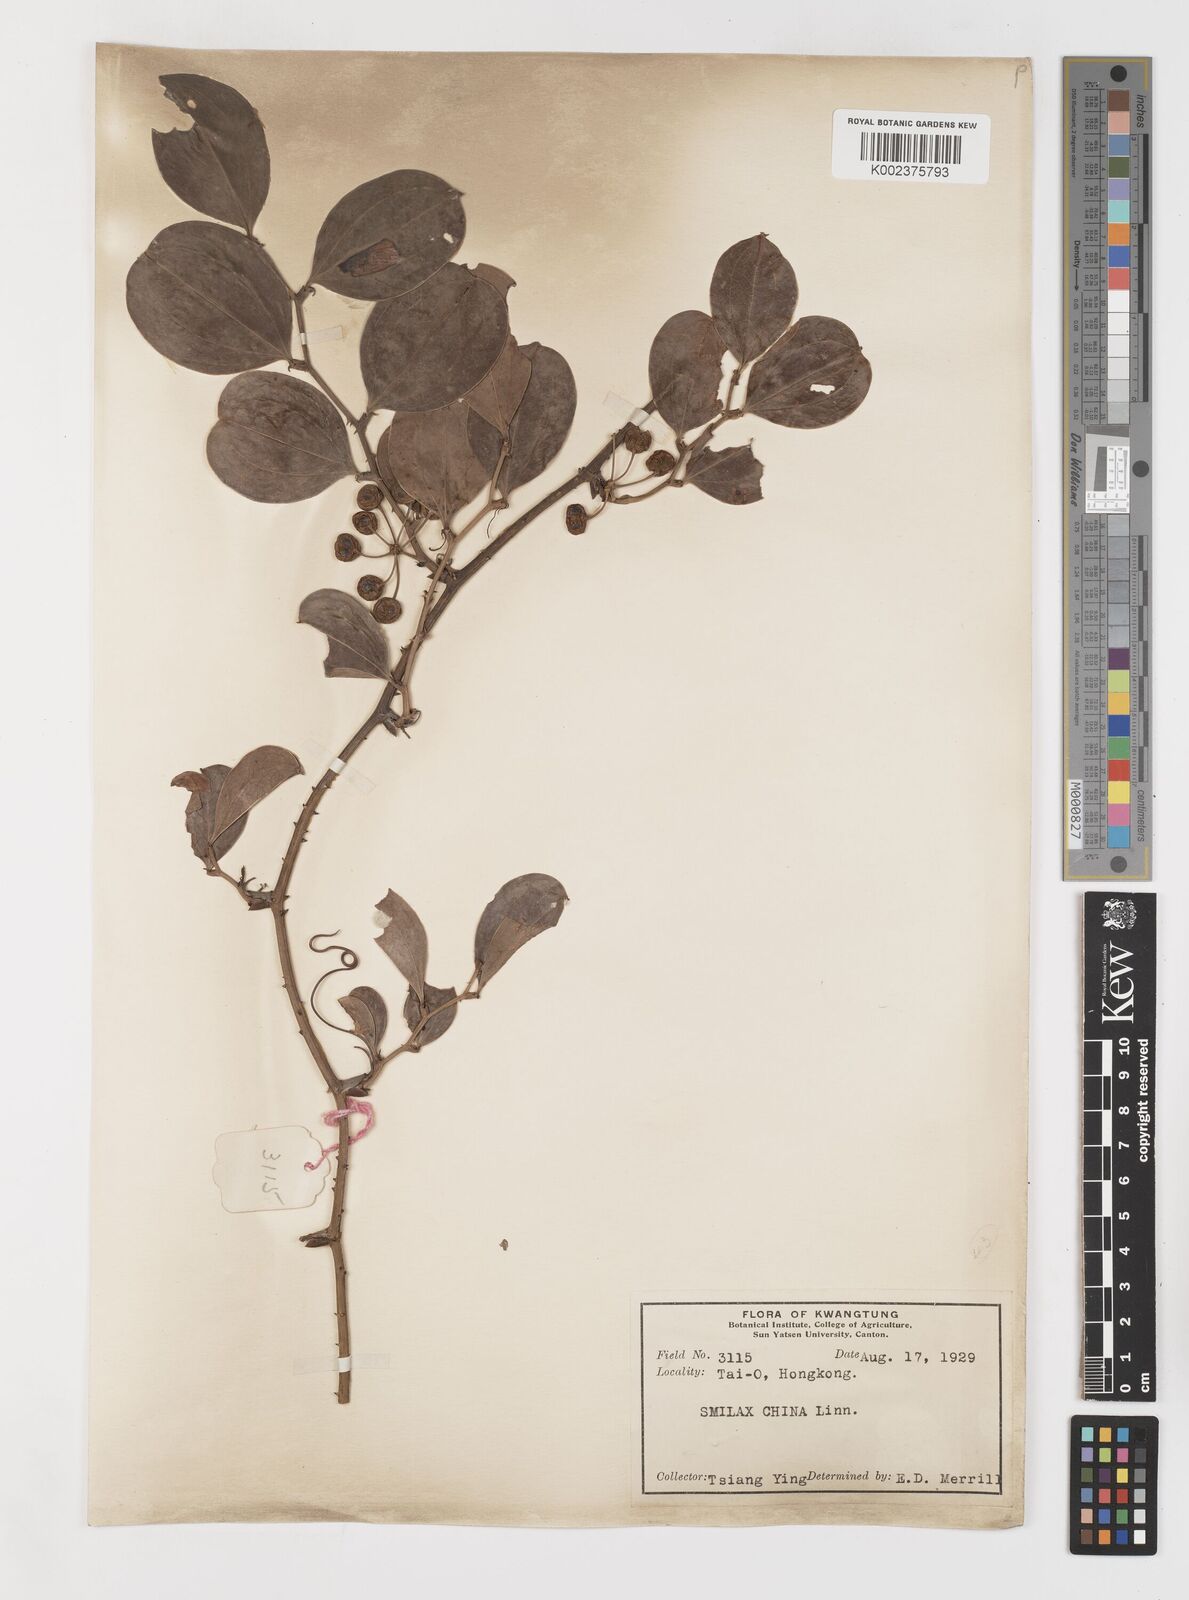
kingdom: Plantae
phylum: Tracheophyta
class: Liliopsida
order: Liliales
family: Smilacaceae
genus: Smilax
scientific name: Smilax china
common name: Chinaroot
